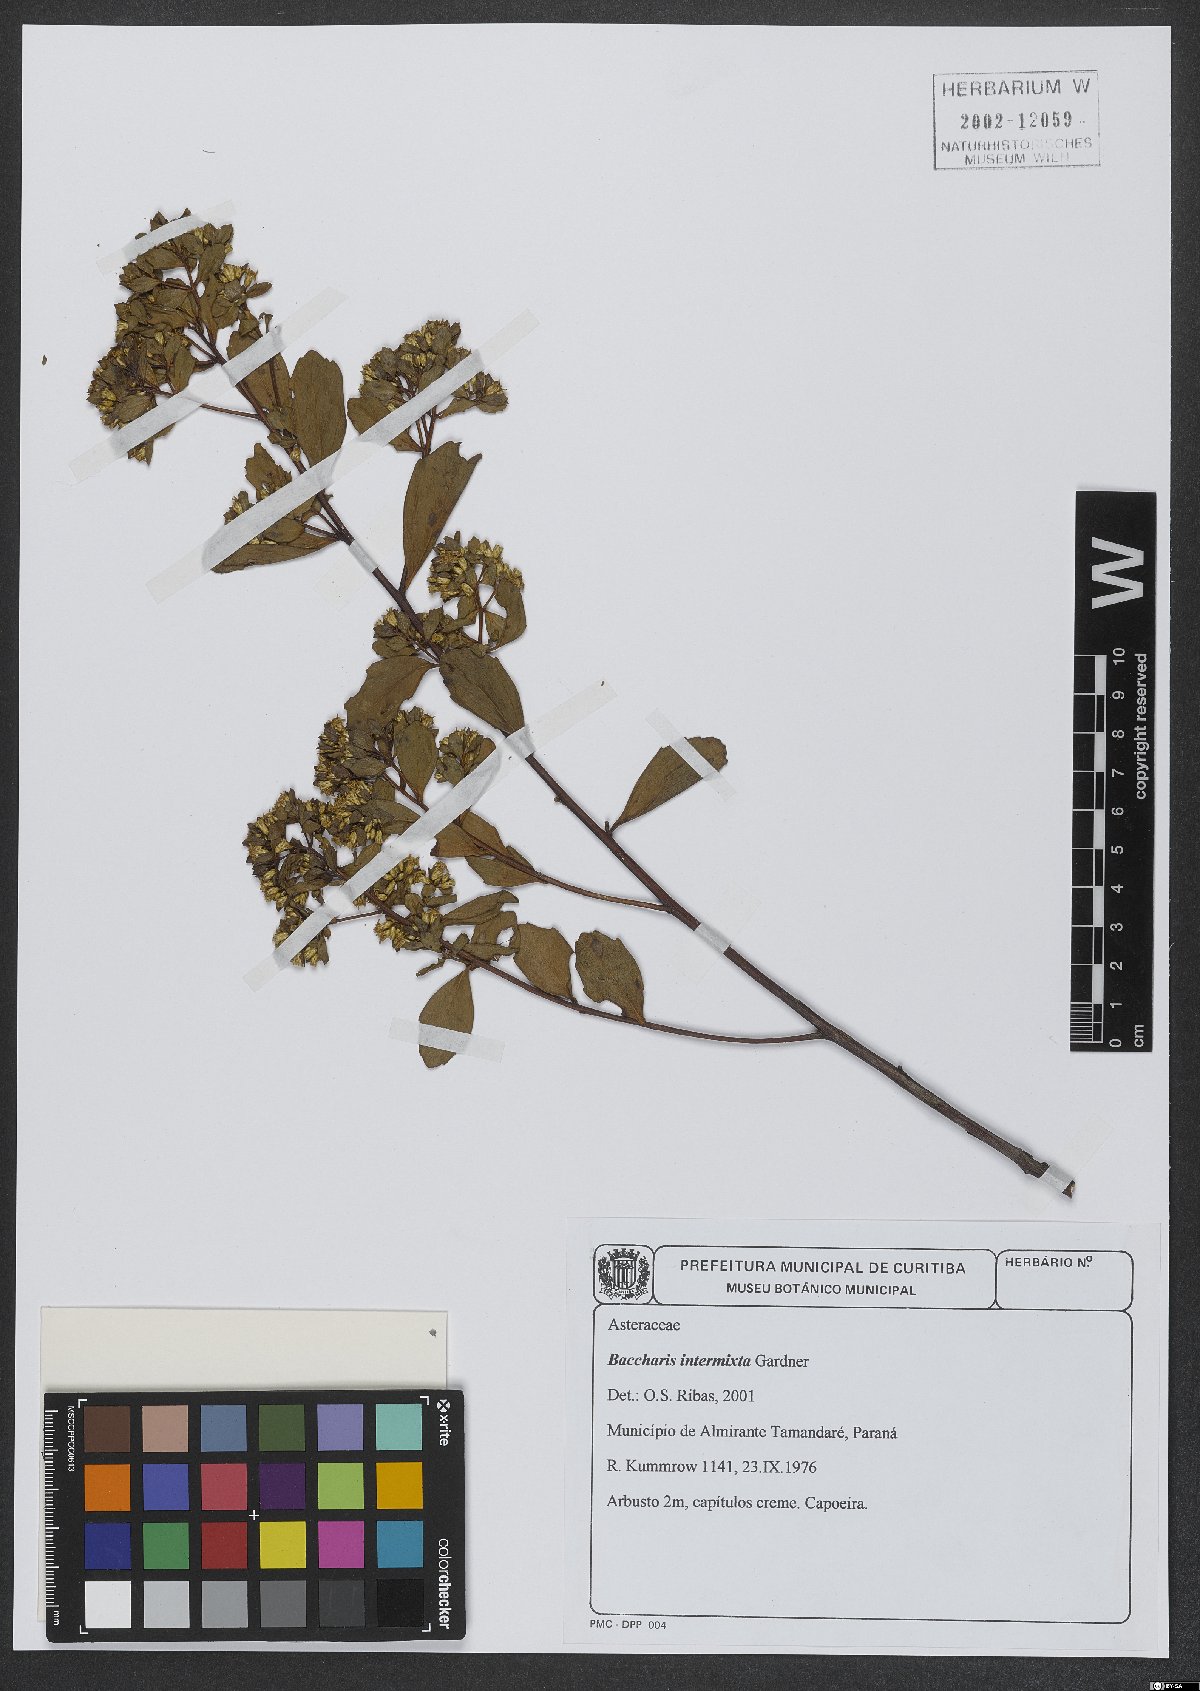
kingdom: Plantae
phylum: Tracheophyta
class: Magnoliopsida
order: Asterales
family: Asteraceae
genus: Baccharis
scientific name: Baccharis intermixta
